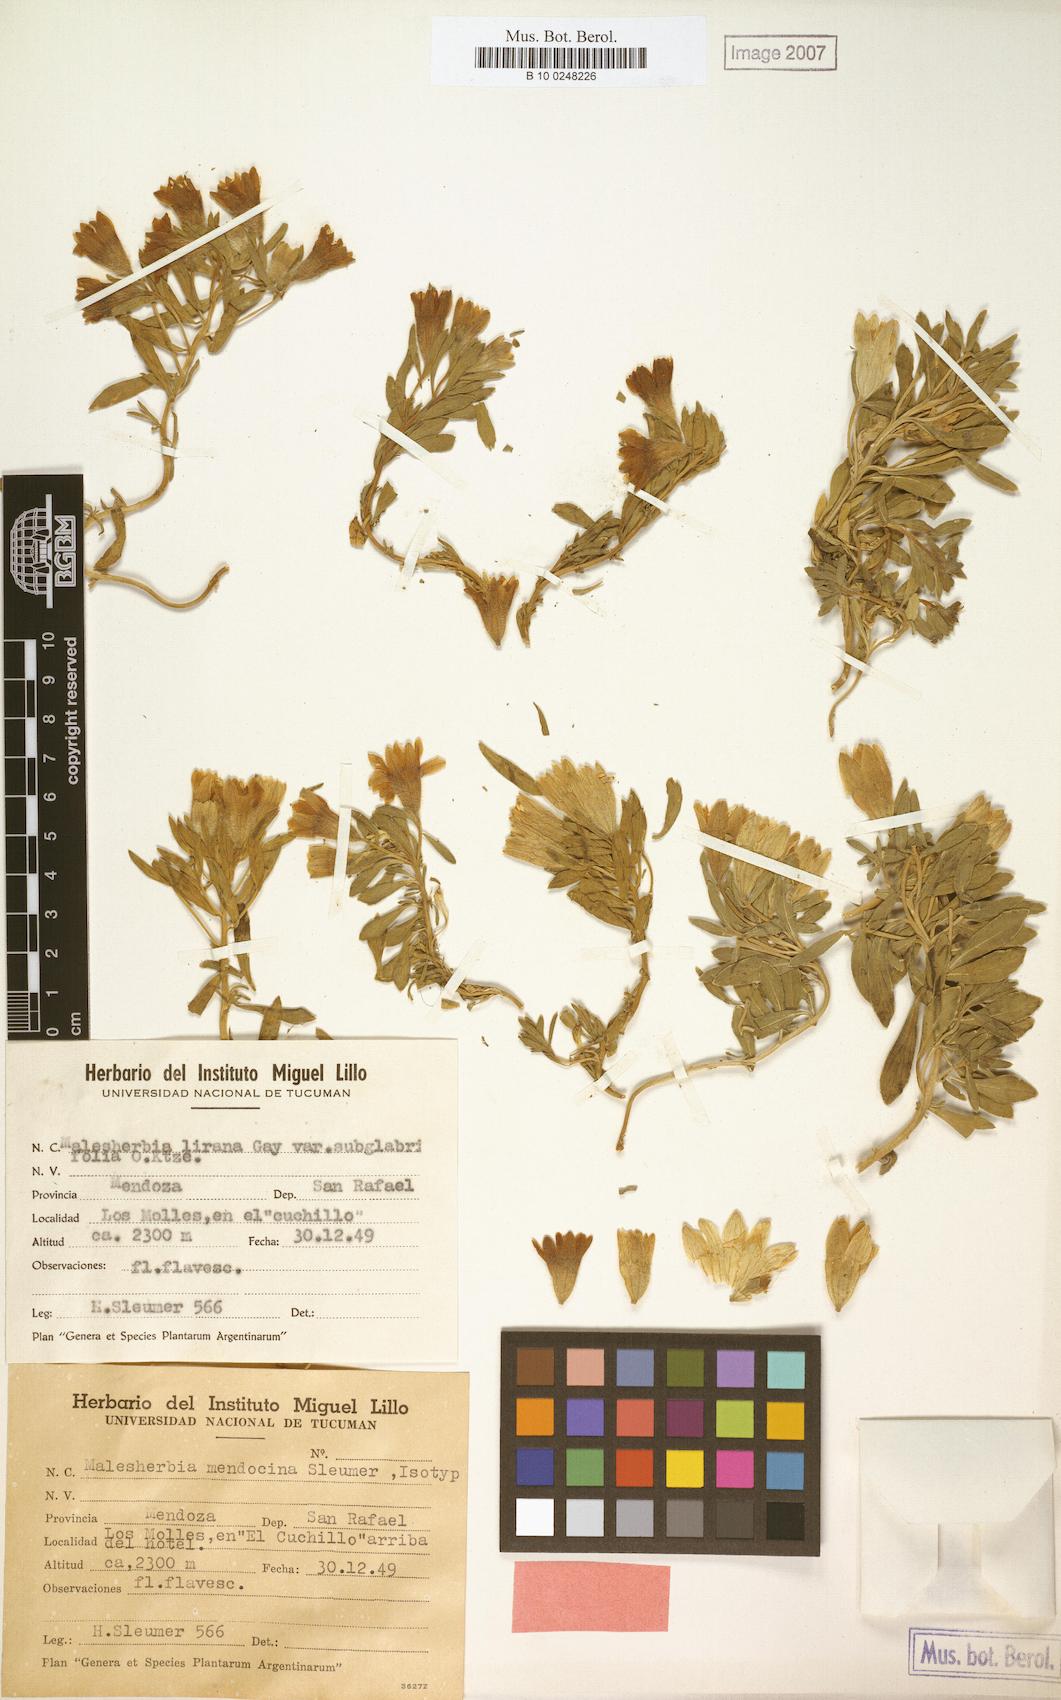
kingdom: Plantae
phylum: Tracheophyta
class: Magnoliopsida
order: Malpighiales
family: Malesherbiaceae
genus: Malesherbia
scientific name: Malesherbia lirana
